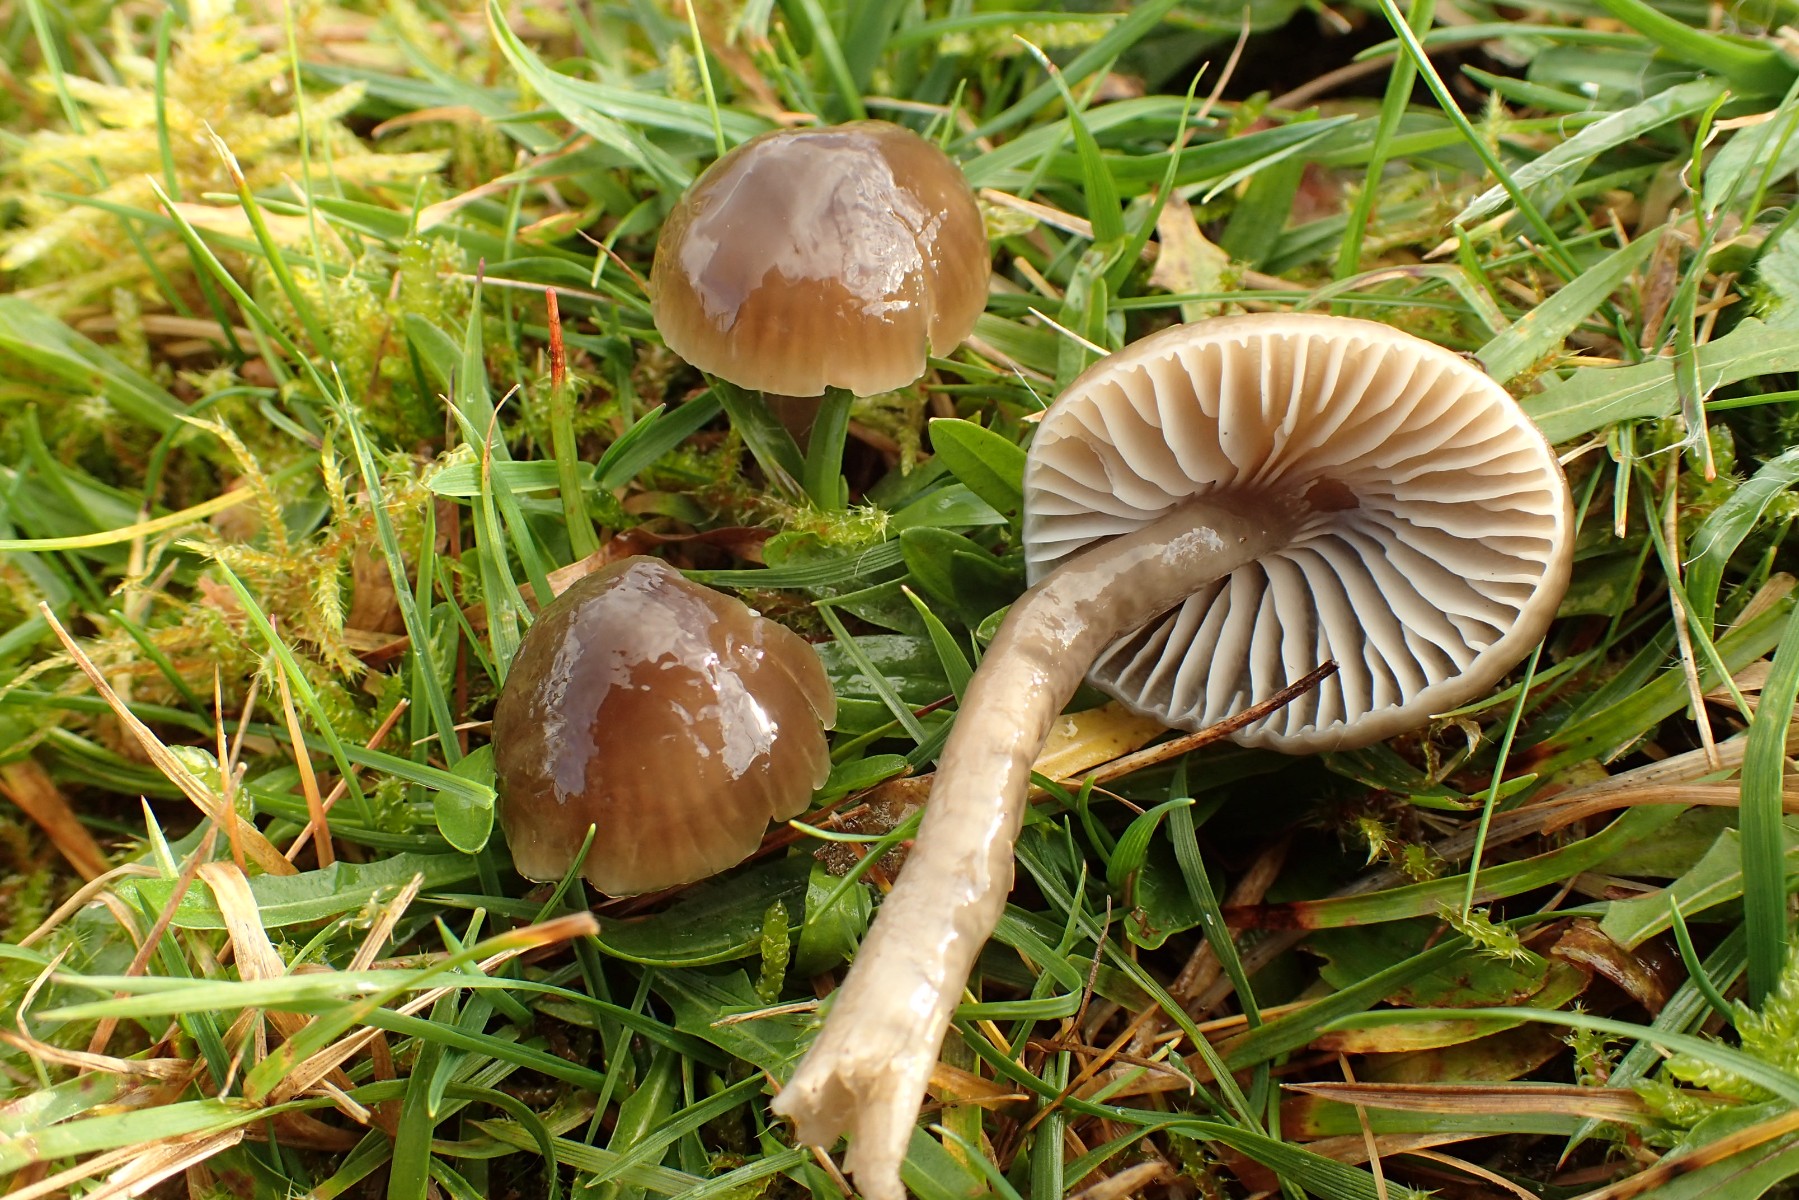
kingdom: Fungi
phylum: Basidiomycota
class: Agaricomycetes
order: Agaricales
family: Hygrophoraceae
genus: Gliophorus
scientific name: Gliophorus irrigatus
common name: slimet vokshat
